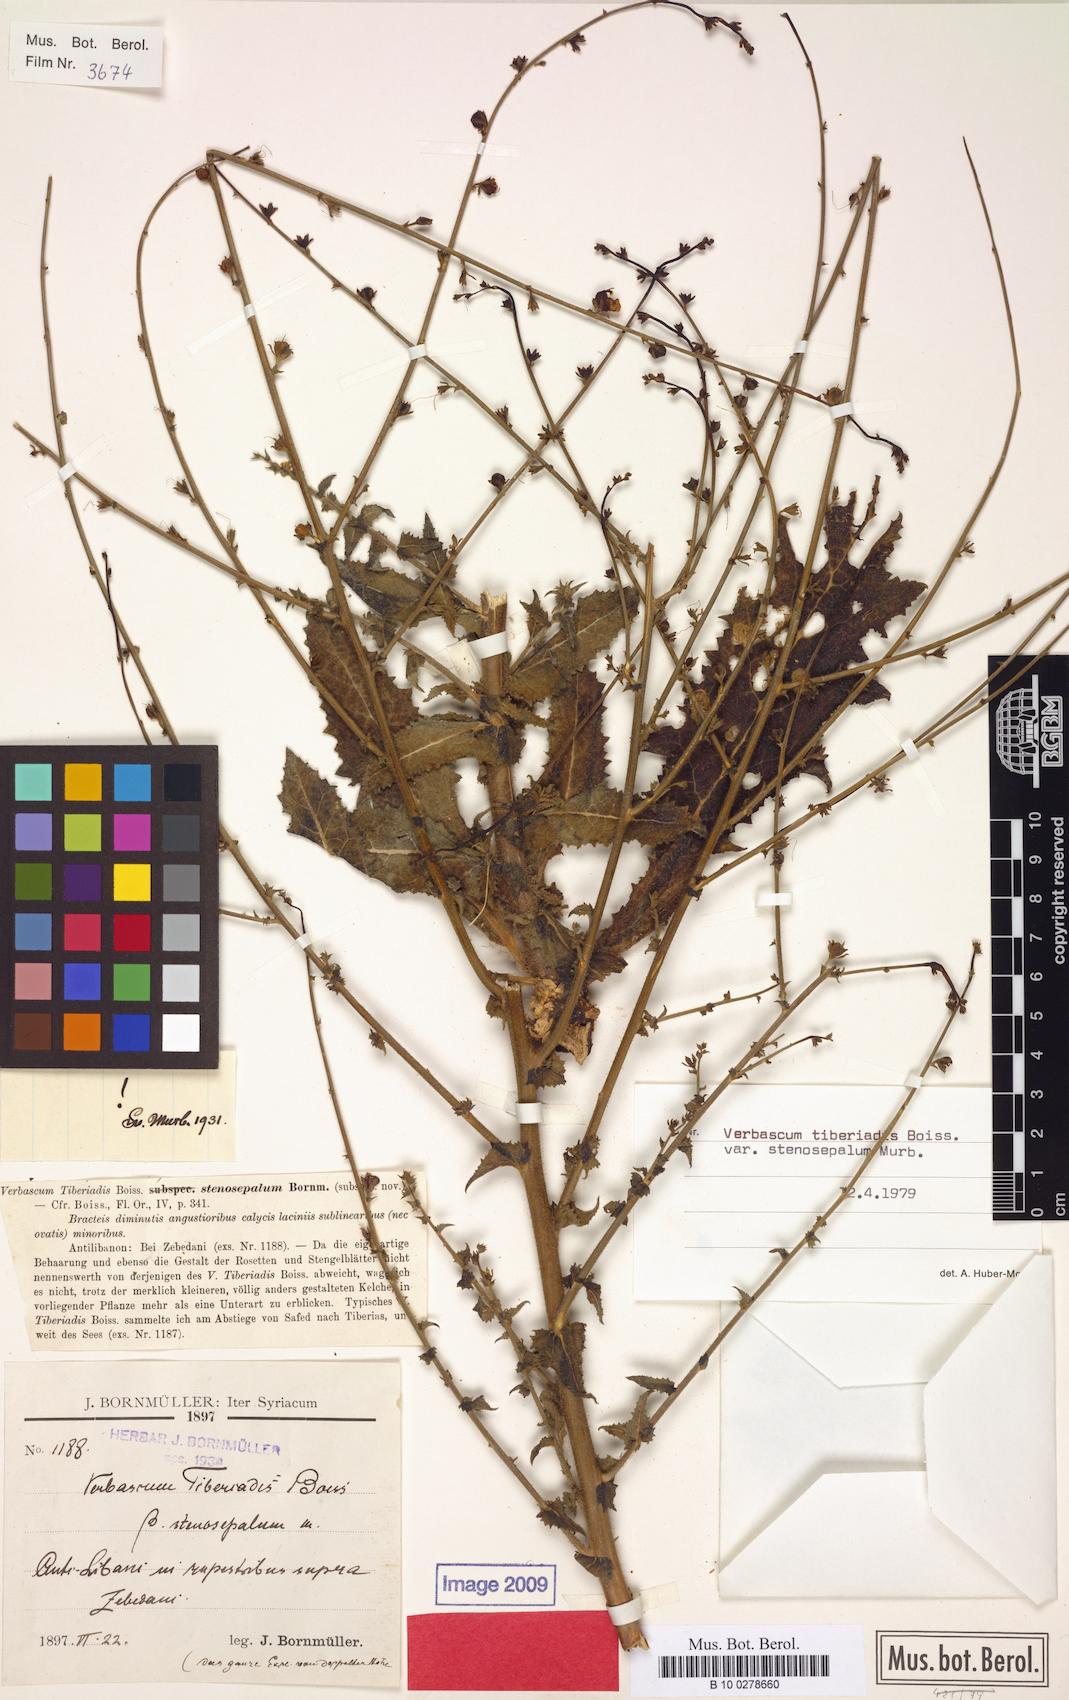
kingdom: Plantae
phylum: Tracheophyta
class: Magnoliopsida
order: Lamiales
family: Scrophulariaceae
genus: Verbascum
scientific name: Verbascum tiberiadis
